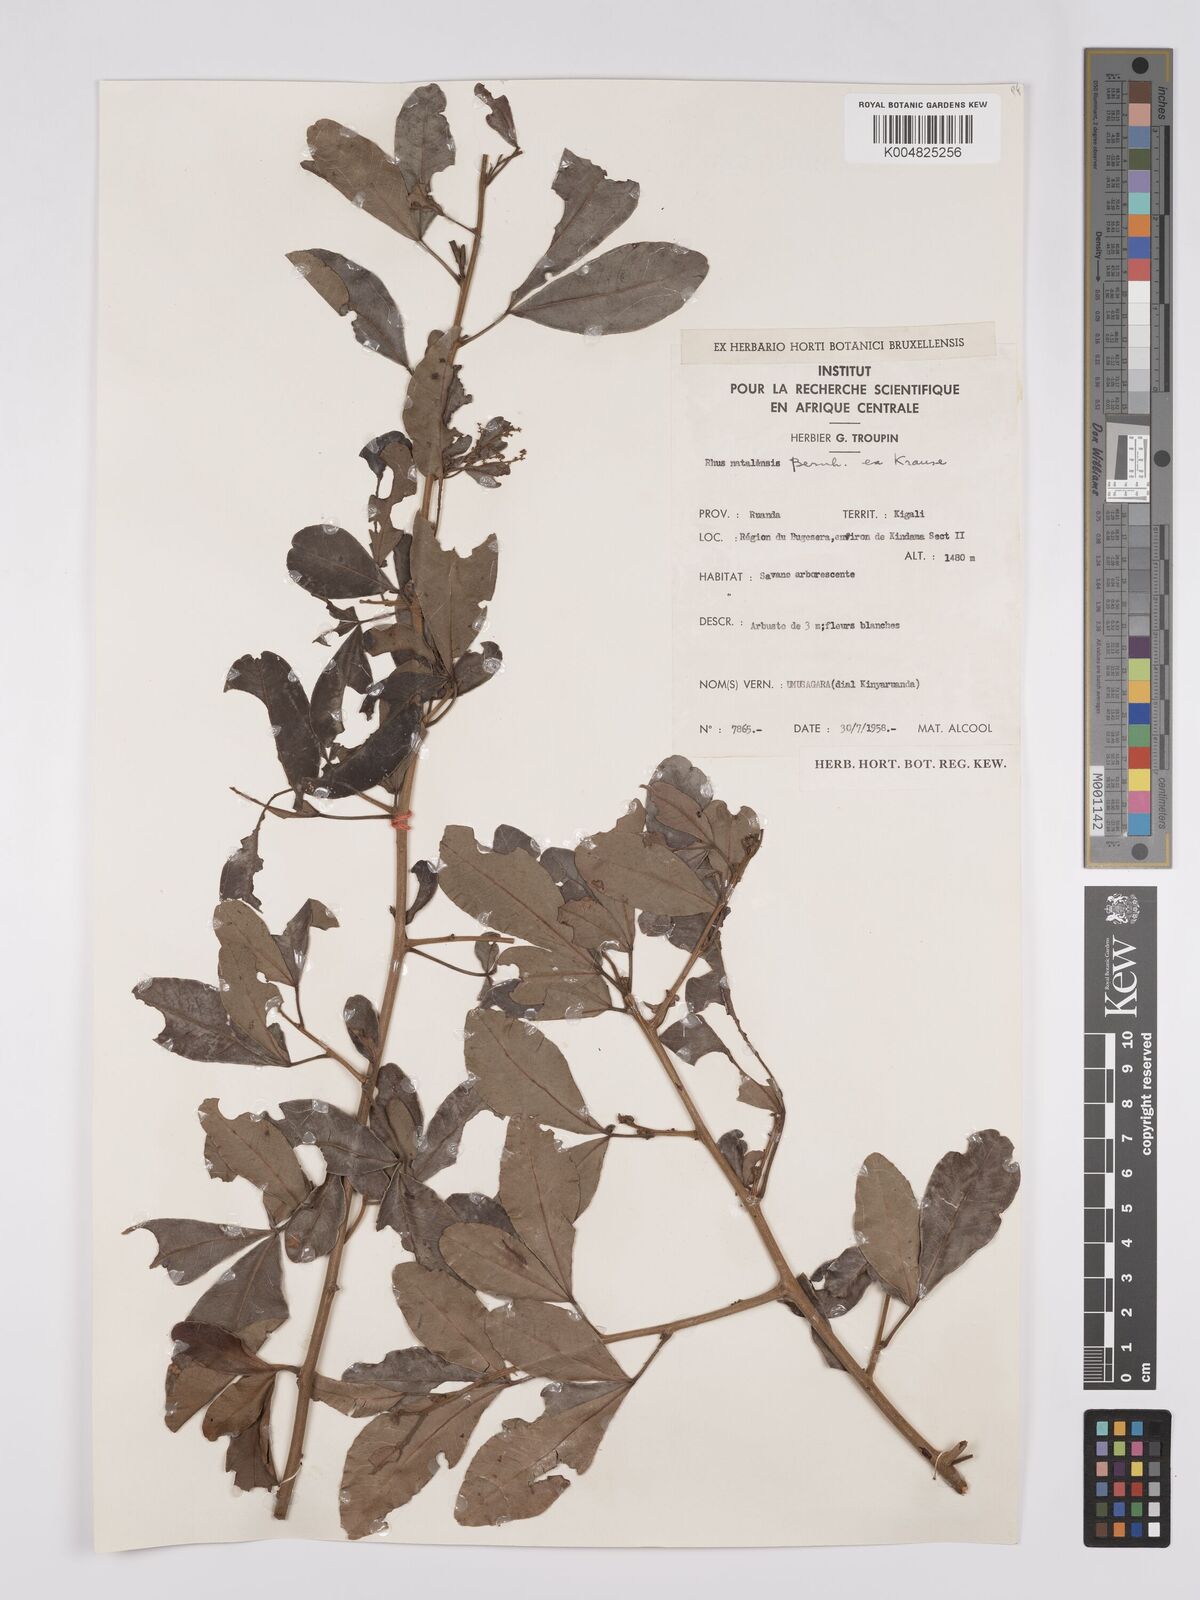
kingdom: Plantae
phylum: Tracheophyta
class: Magnoliopsida
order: Sapindales
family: Anacardiaceae
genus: Searsia
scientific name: Searsia natalensis
